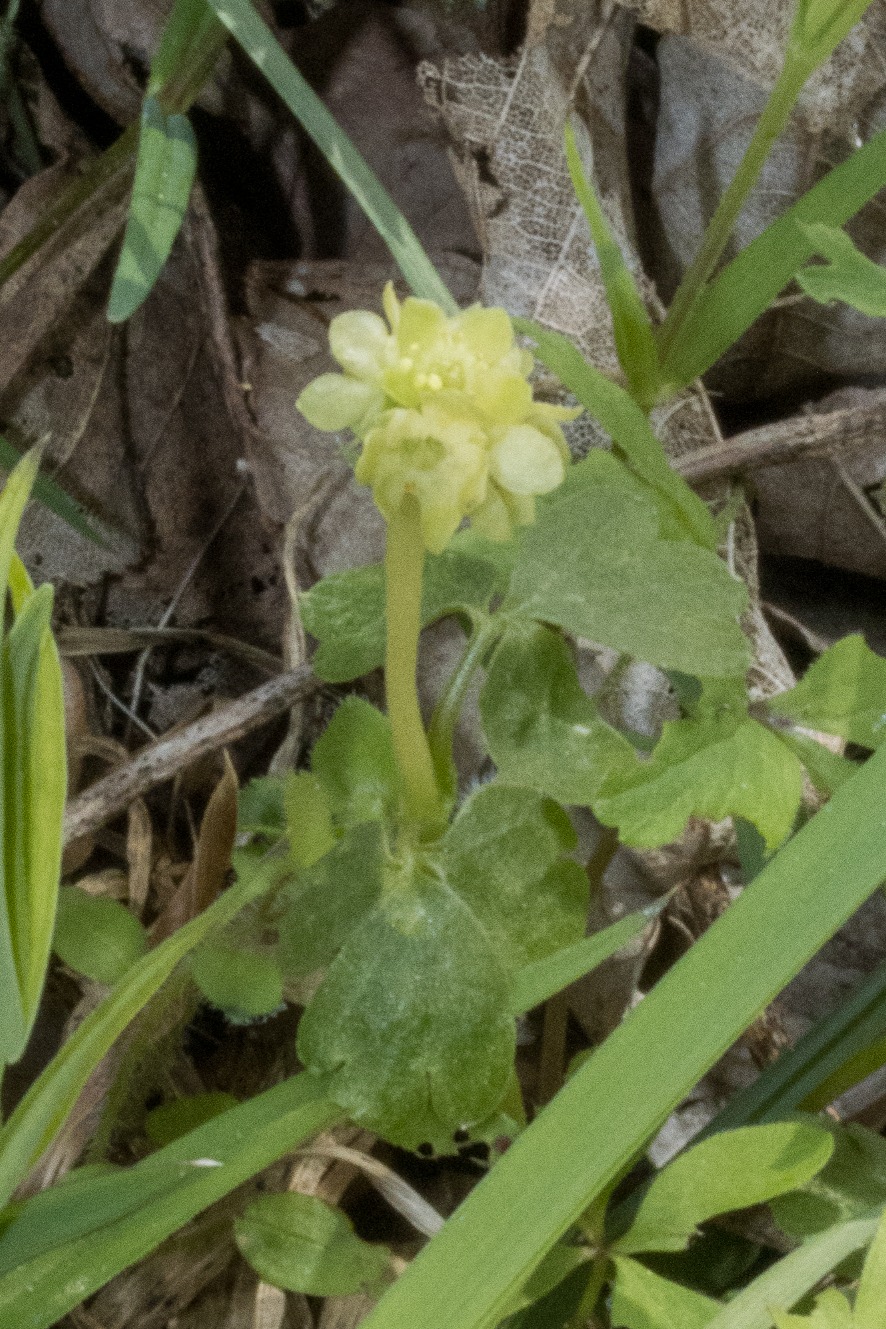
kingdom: Plantae
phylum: Tracheophyta
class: Magnoliopsida
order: Dipsacales
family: Viburnaceae
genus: Adoxa
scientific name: Adoxa moschatellina
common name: Desmerurt
